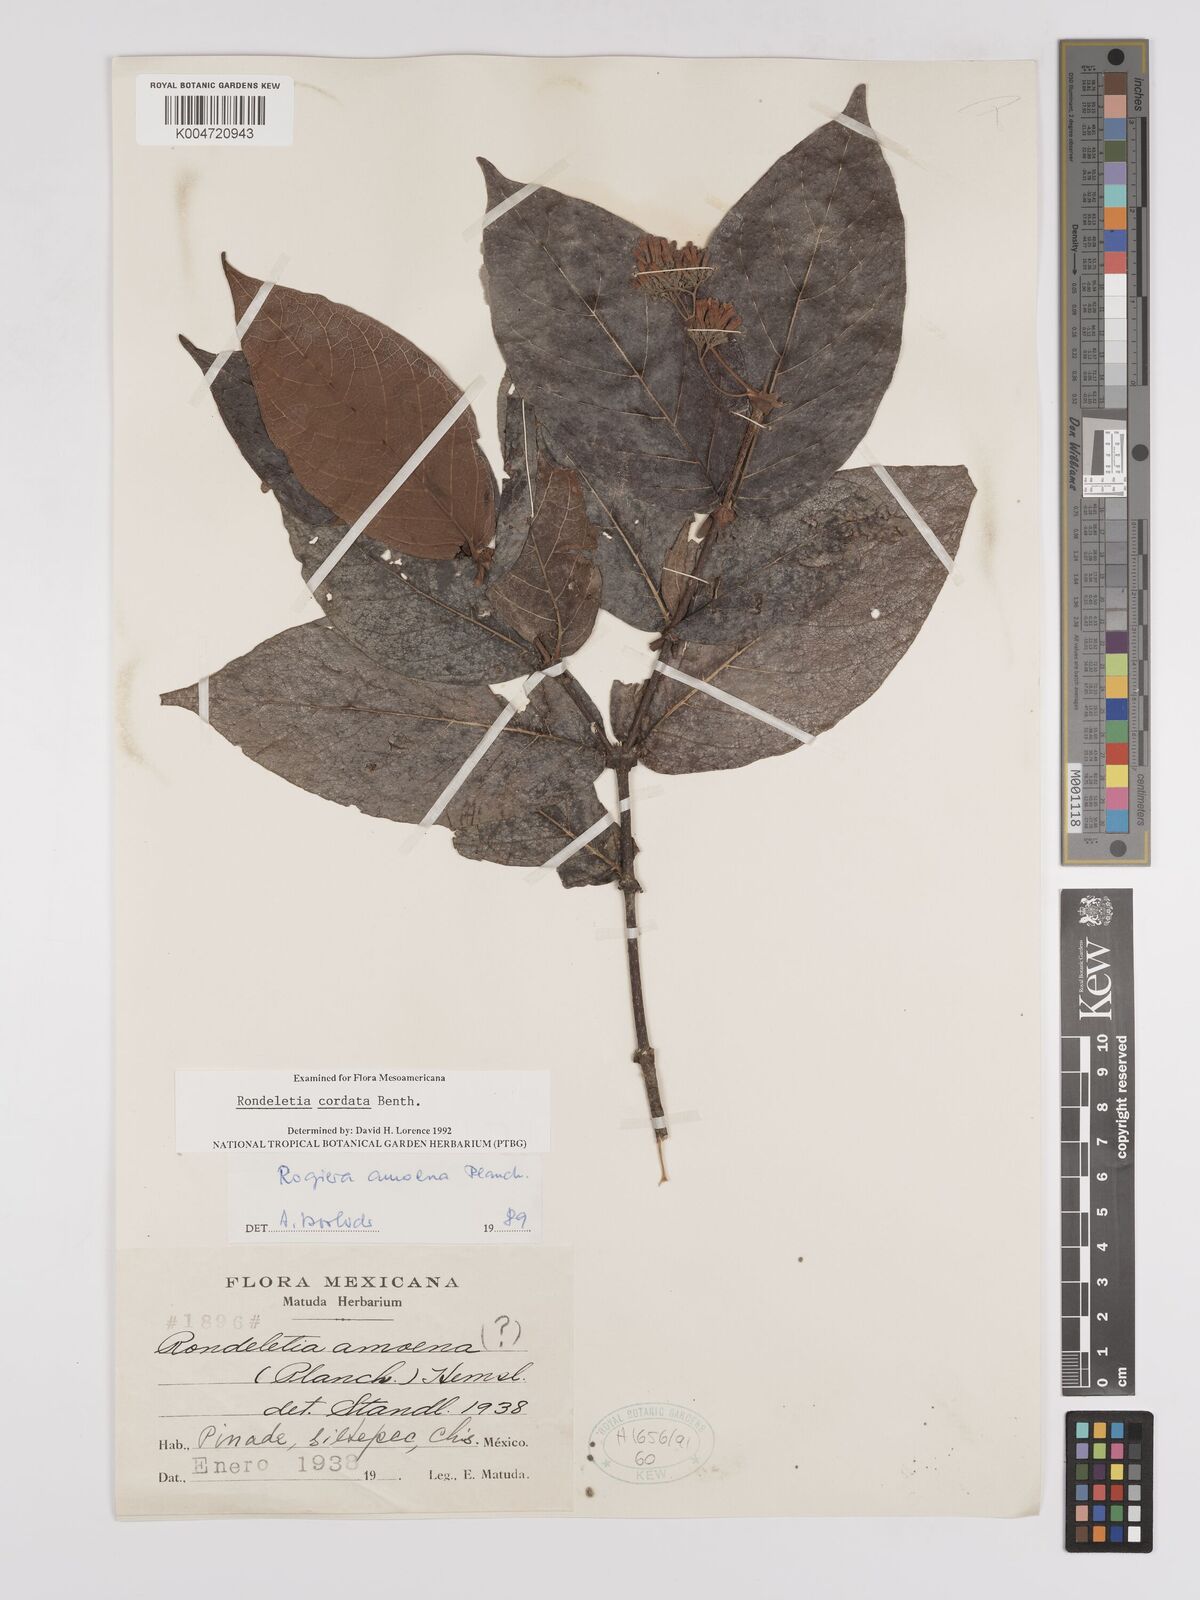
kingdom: Plantae
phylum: Tracheophyta
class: Magnoliopsida
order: Gentianales
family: Rubiaceae
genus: Rogiera
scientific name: Rogiera cordata
